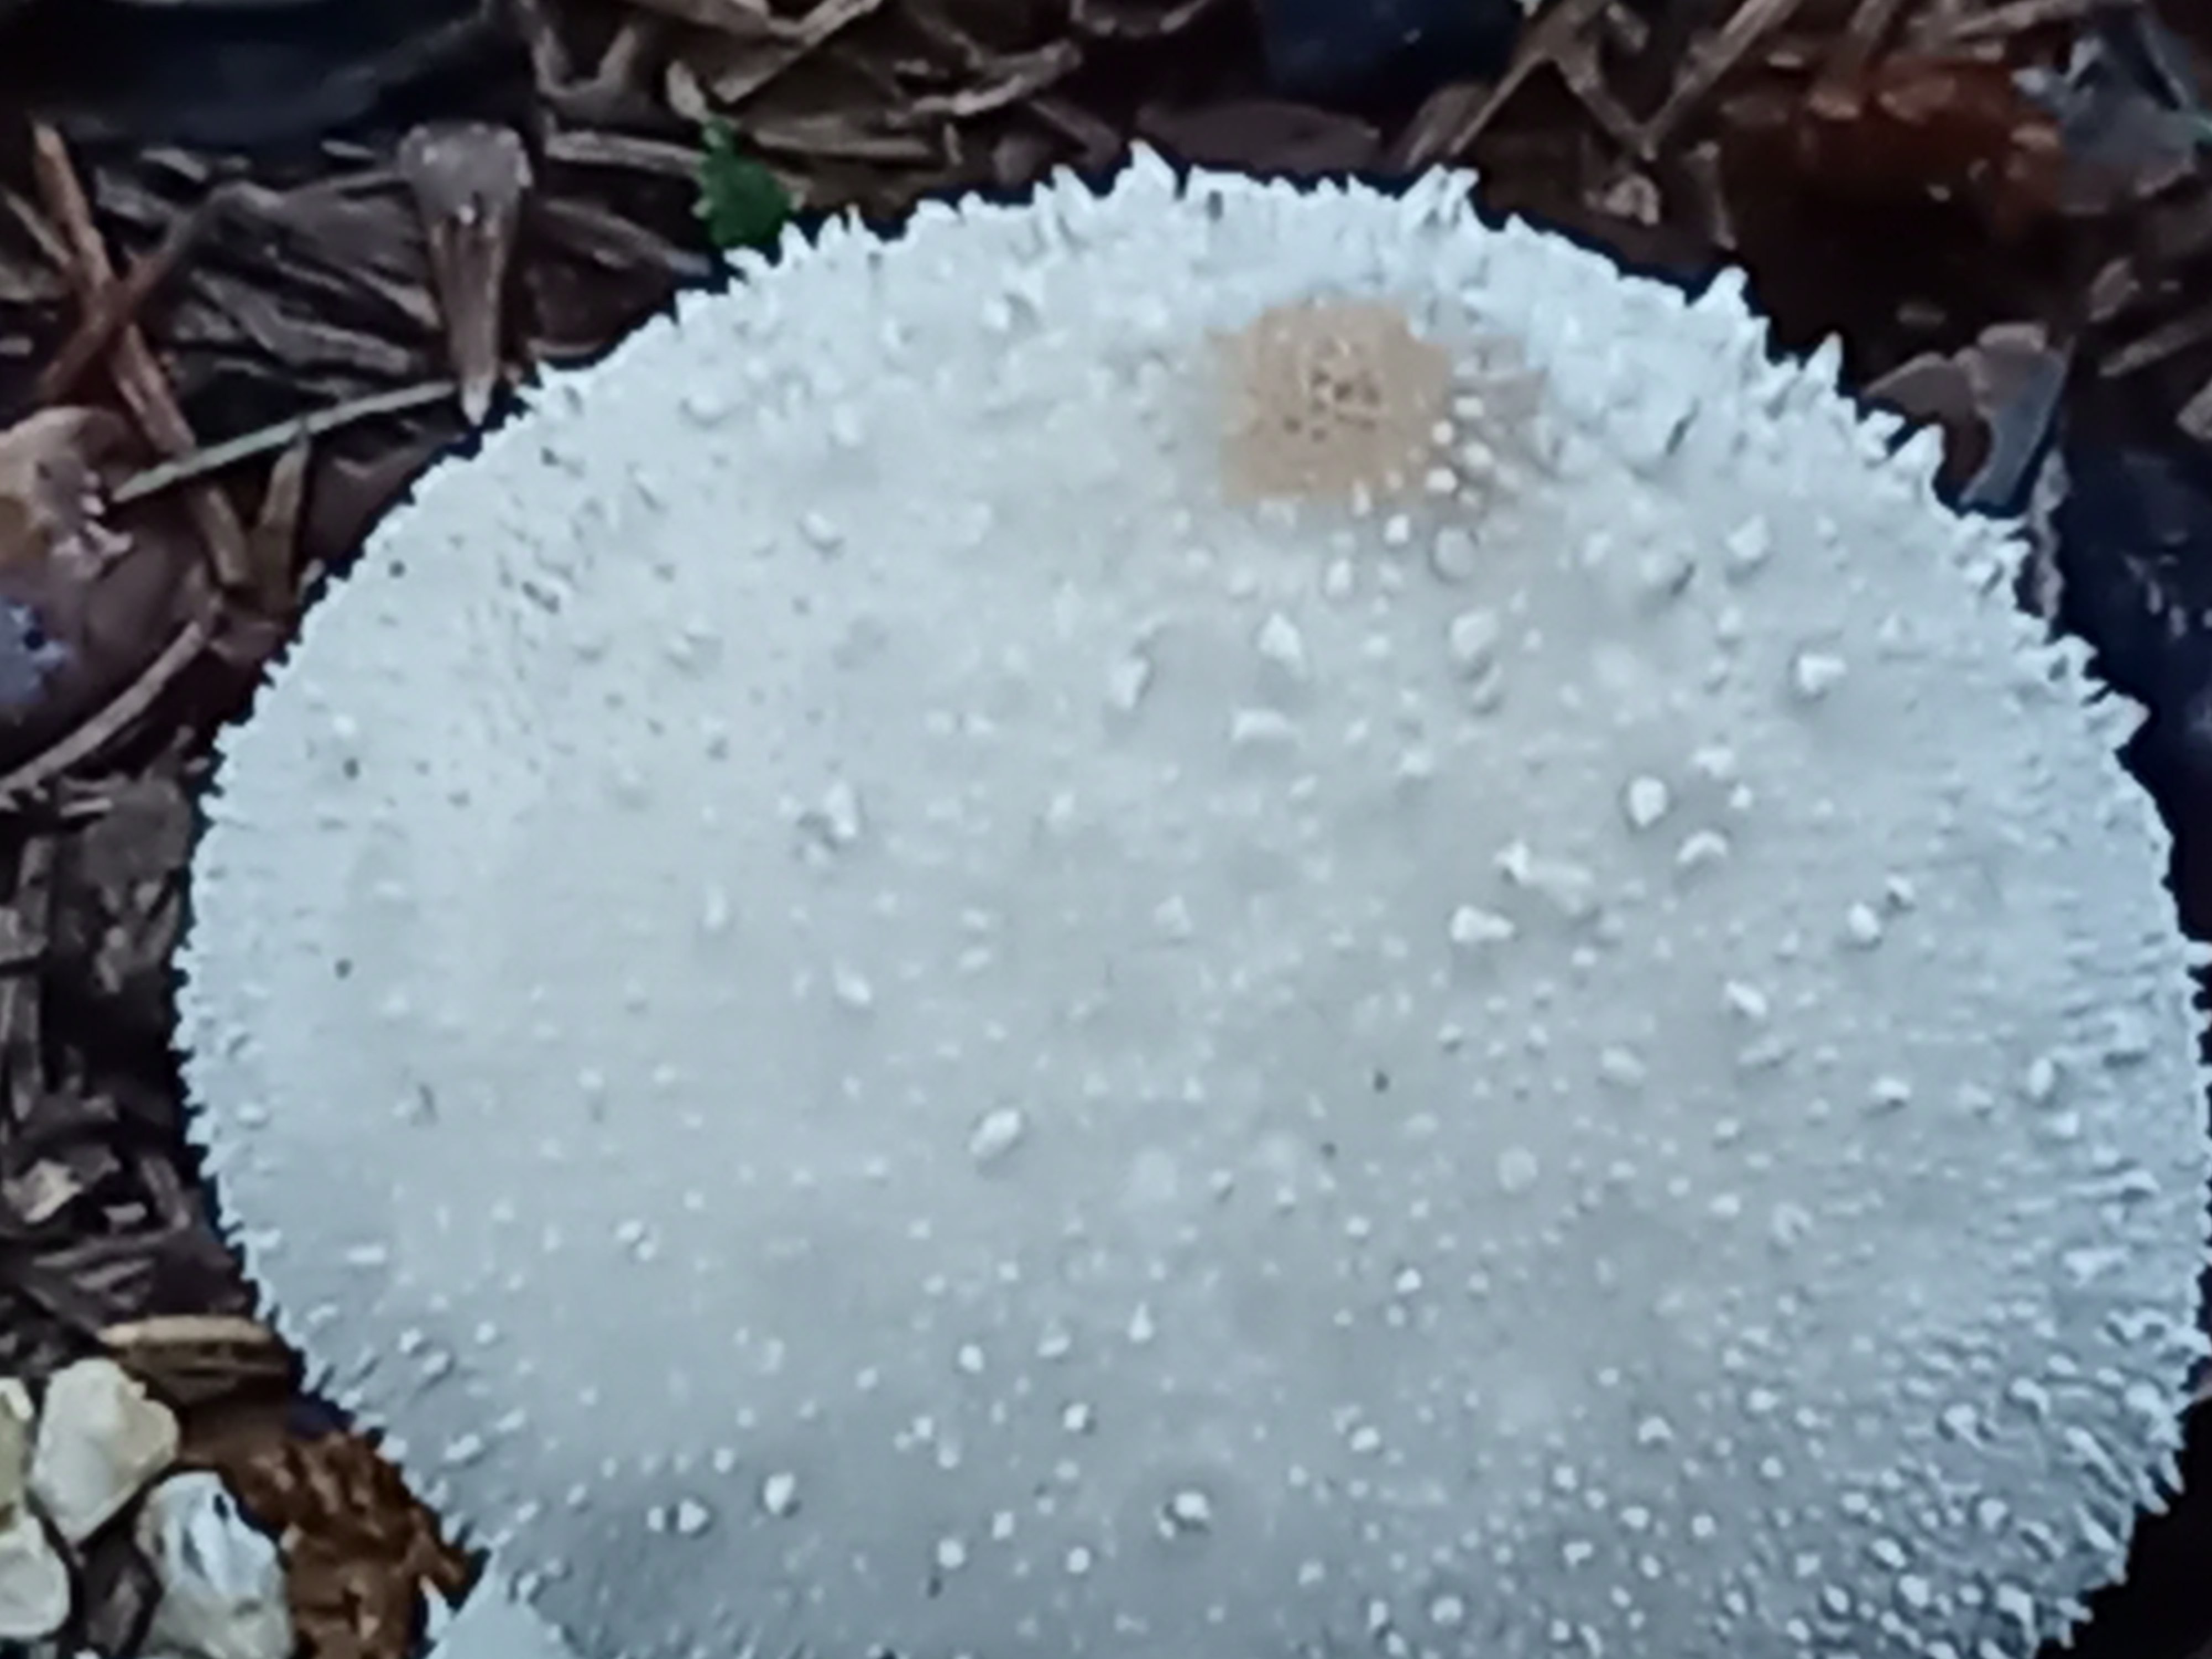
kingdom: Fungi
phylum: Basidiomycota
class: Agaricomycetes
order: Agaricales
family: Lycoperdaceae
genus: Lycoperdon
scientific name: Lycoperdon perlatum
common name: krystal-støvbold
